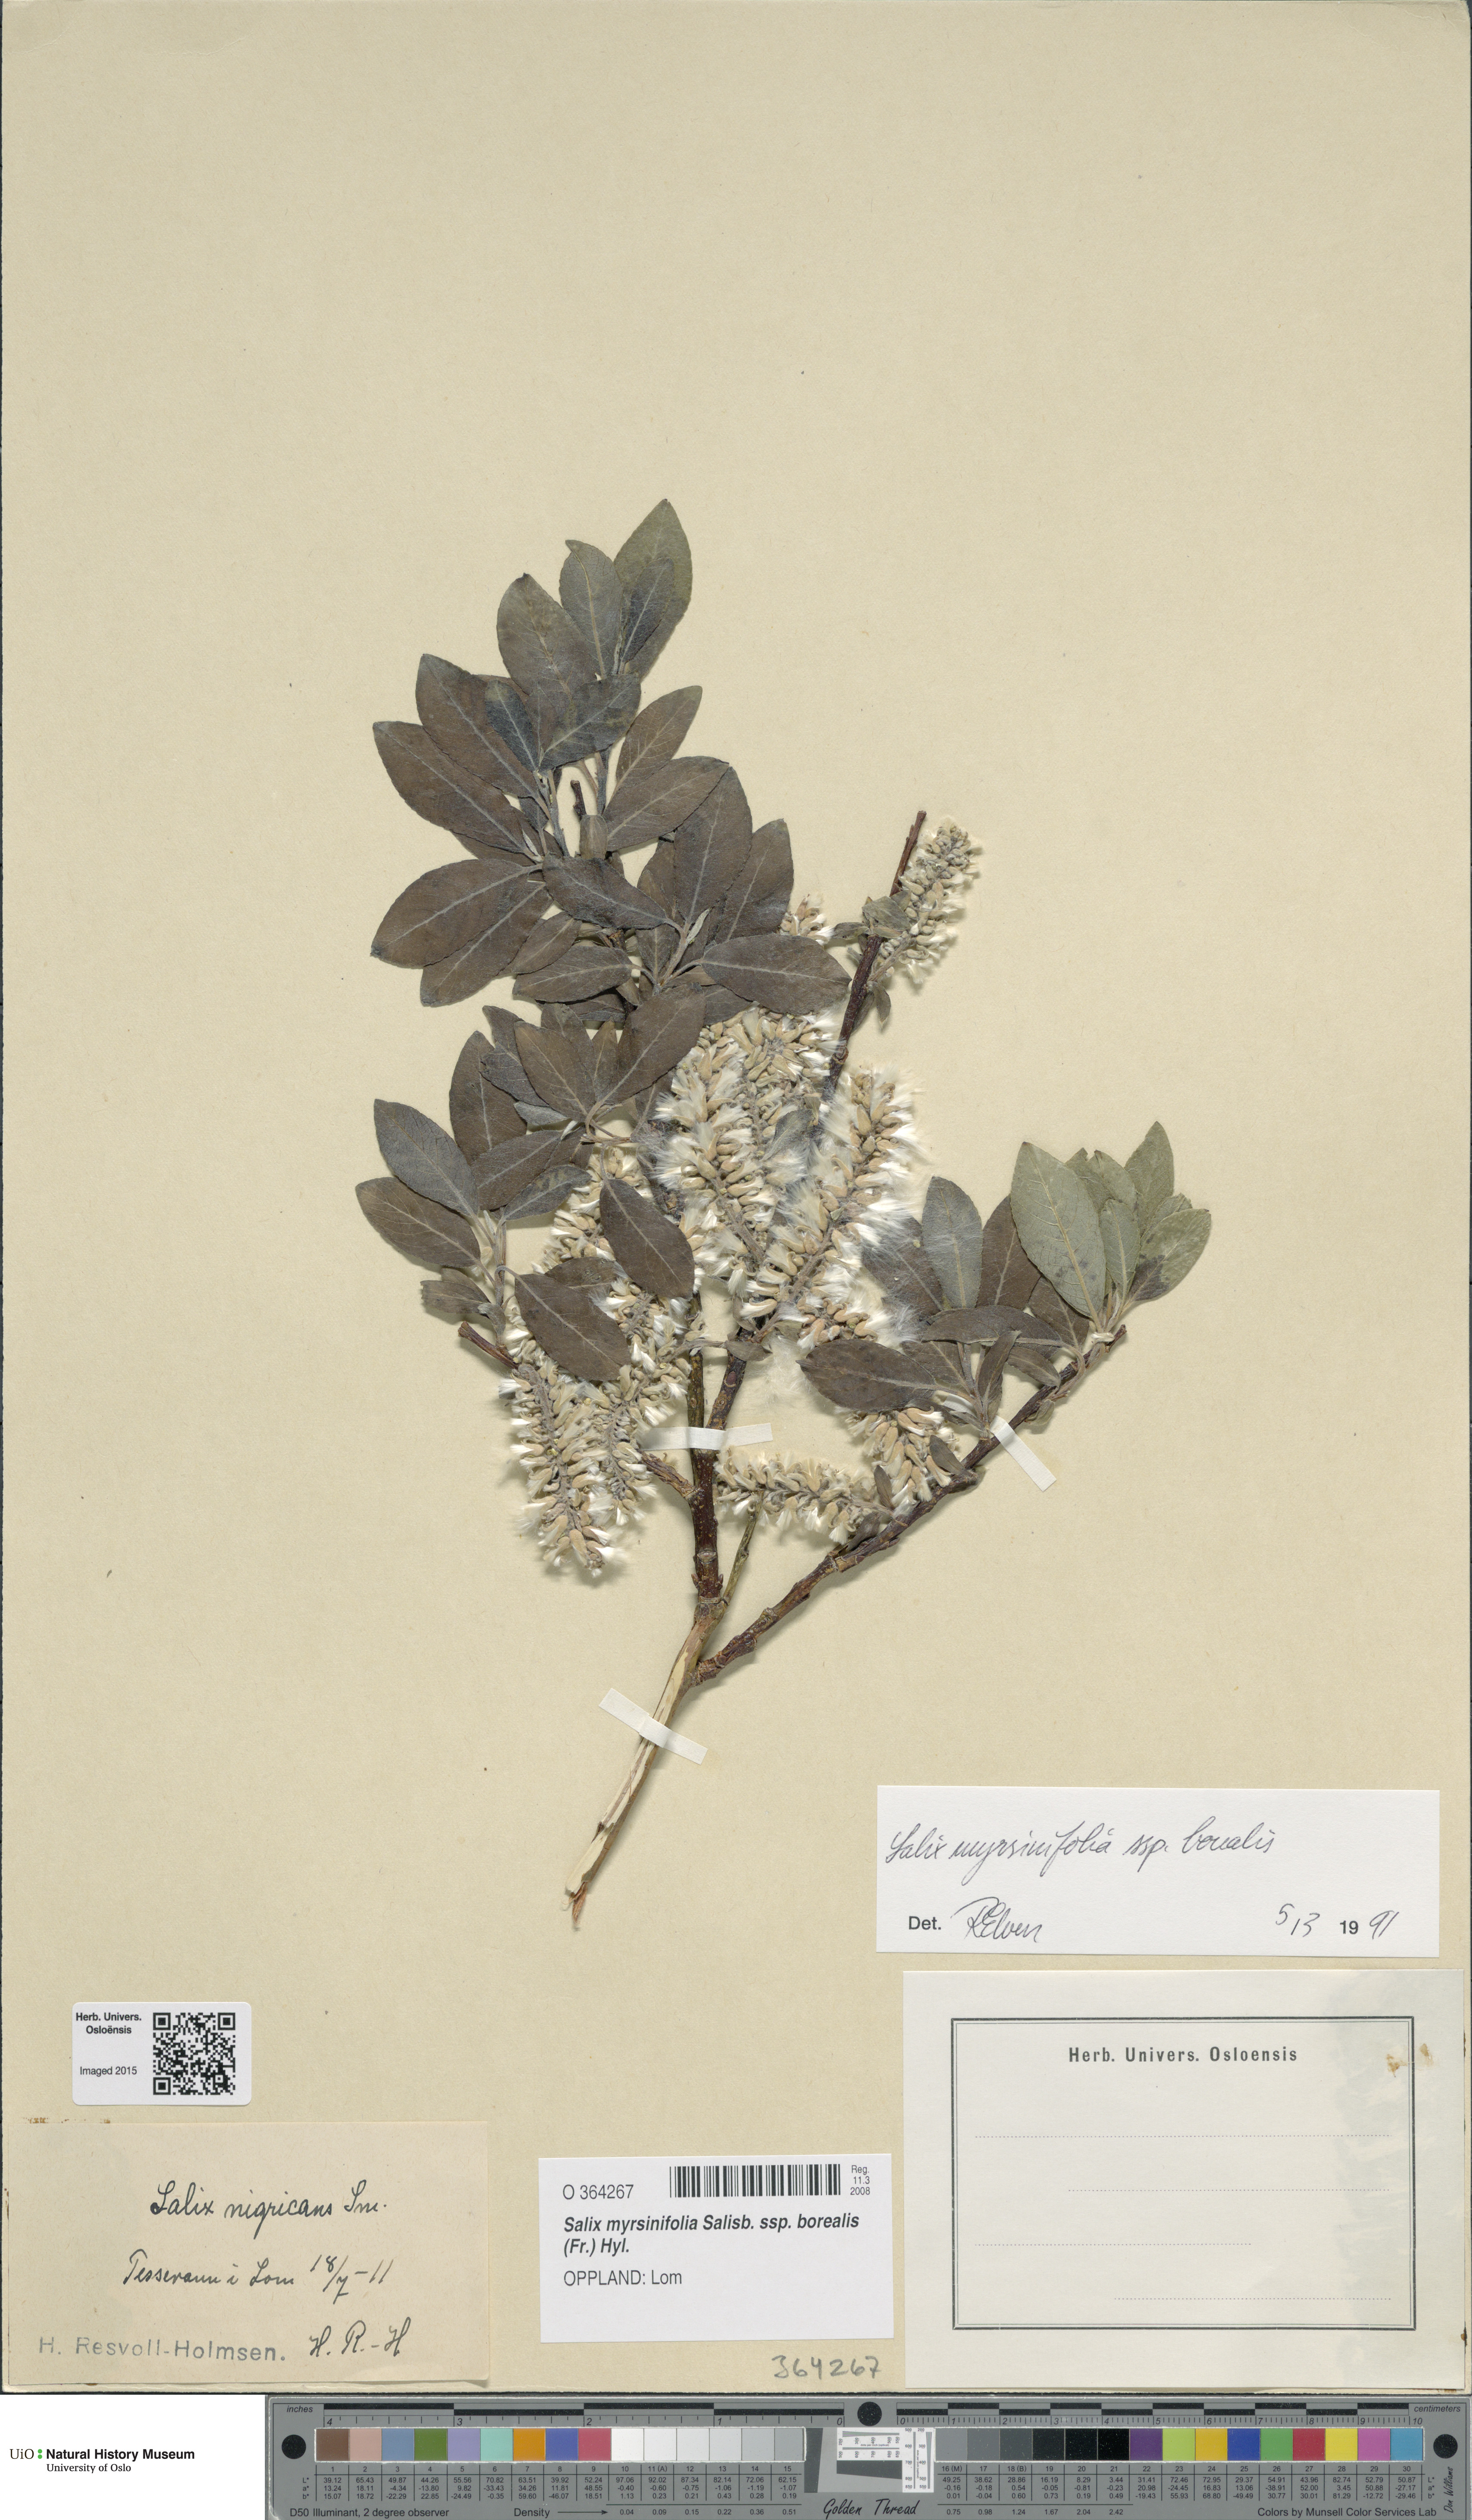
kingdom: Plantae
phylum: Tracheophyta
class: Magnoliopsida
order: Malpighiales
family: Salicaceae
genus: Salix
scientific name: Salix myrsinifolia
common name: Dark-leaved willow
